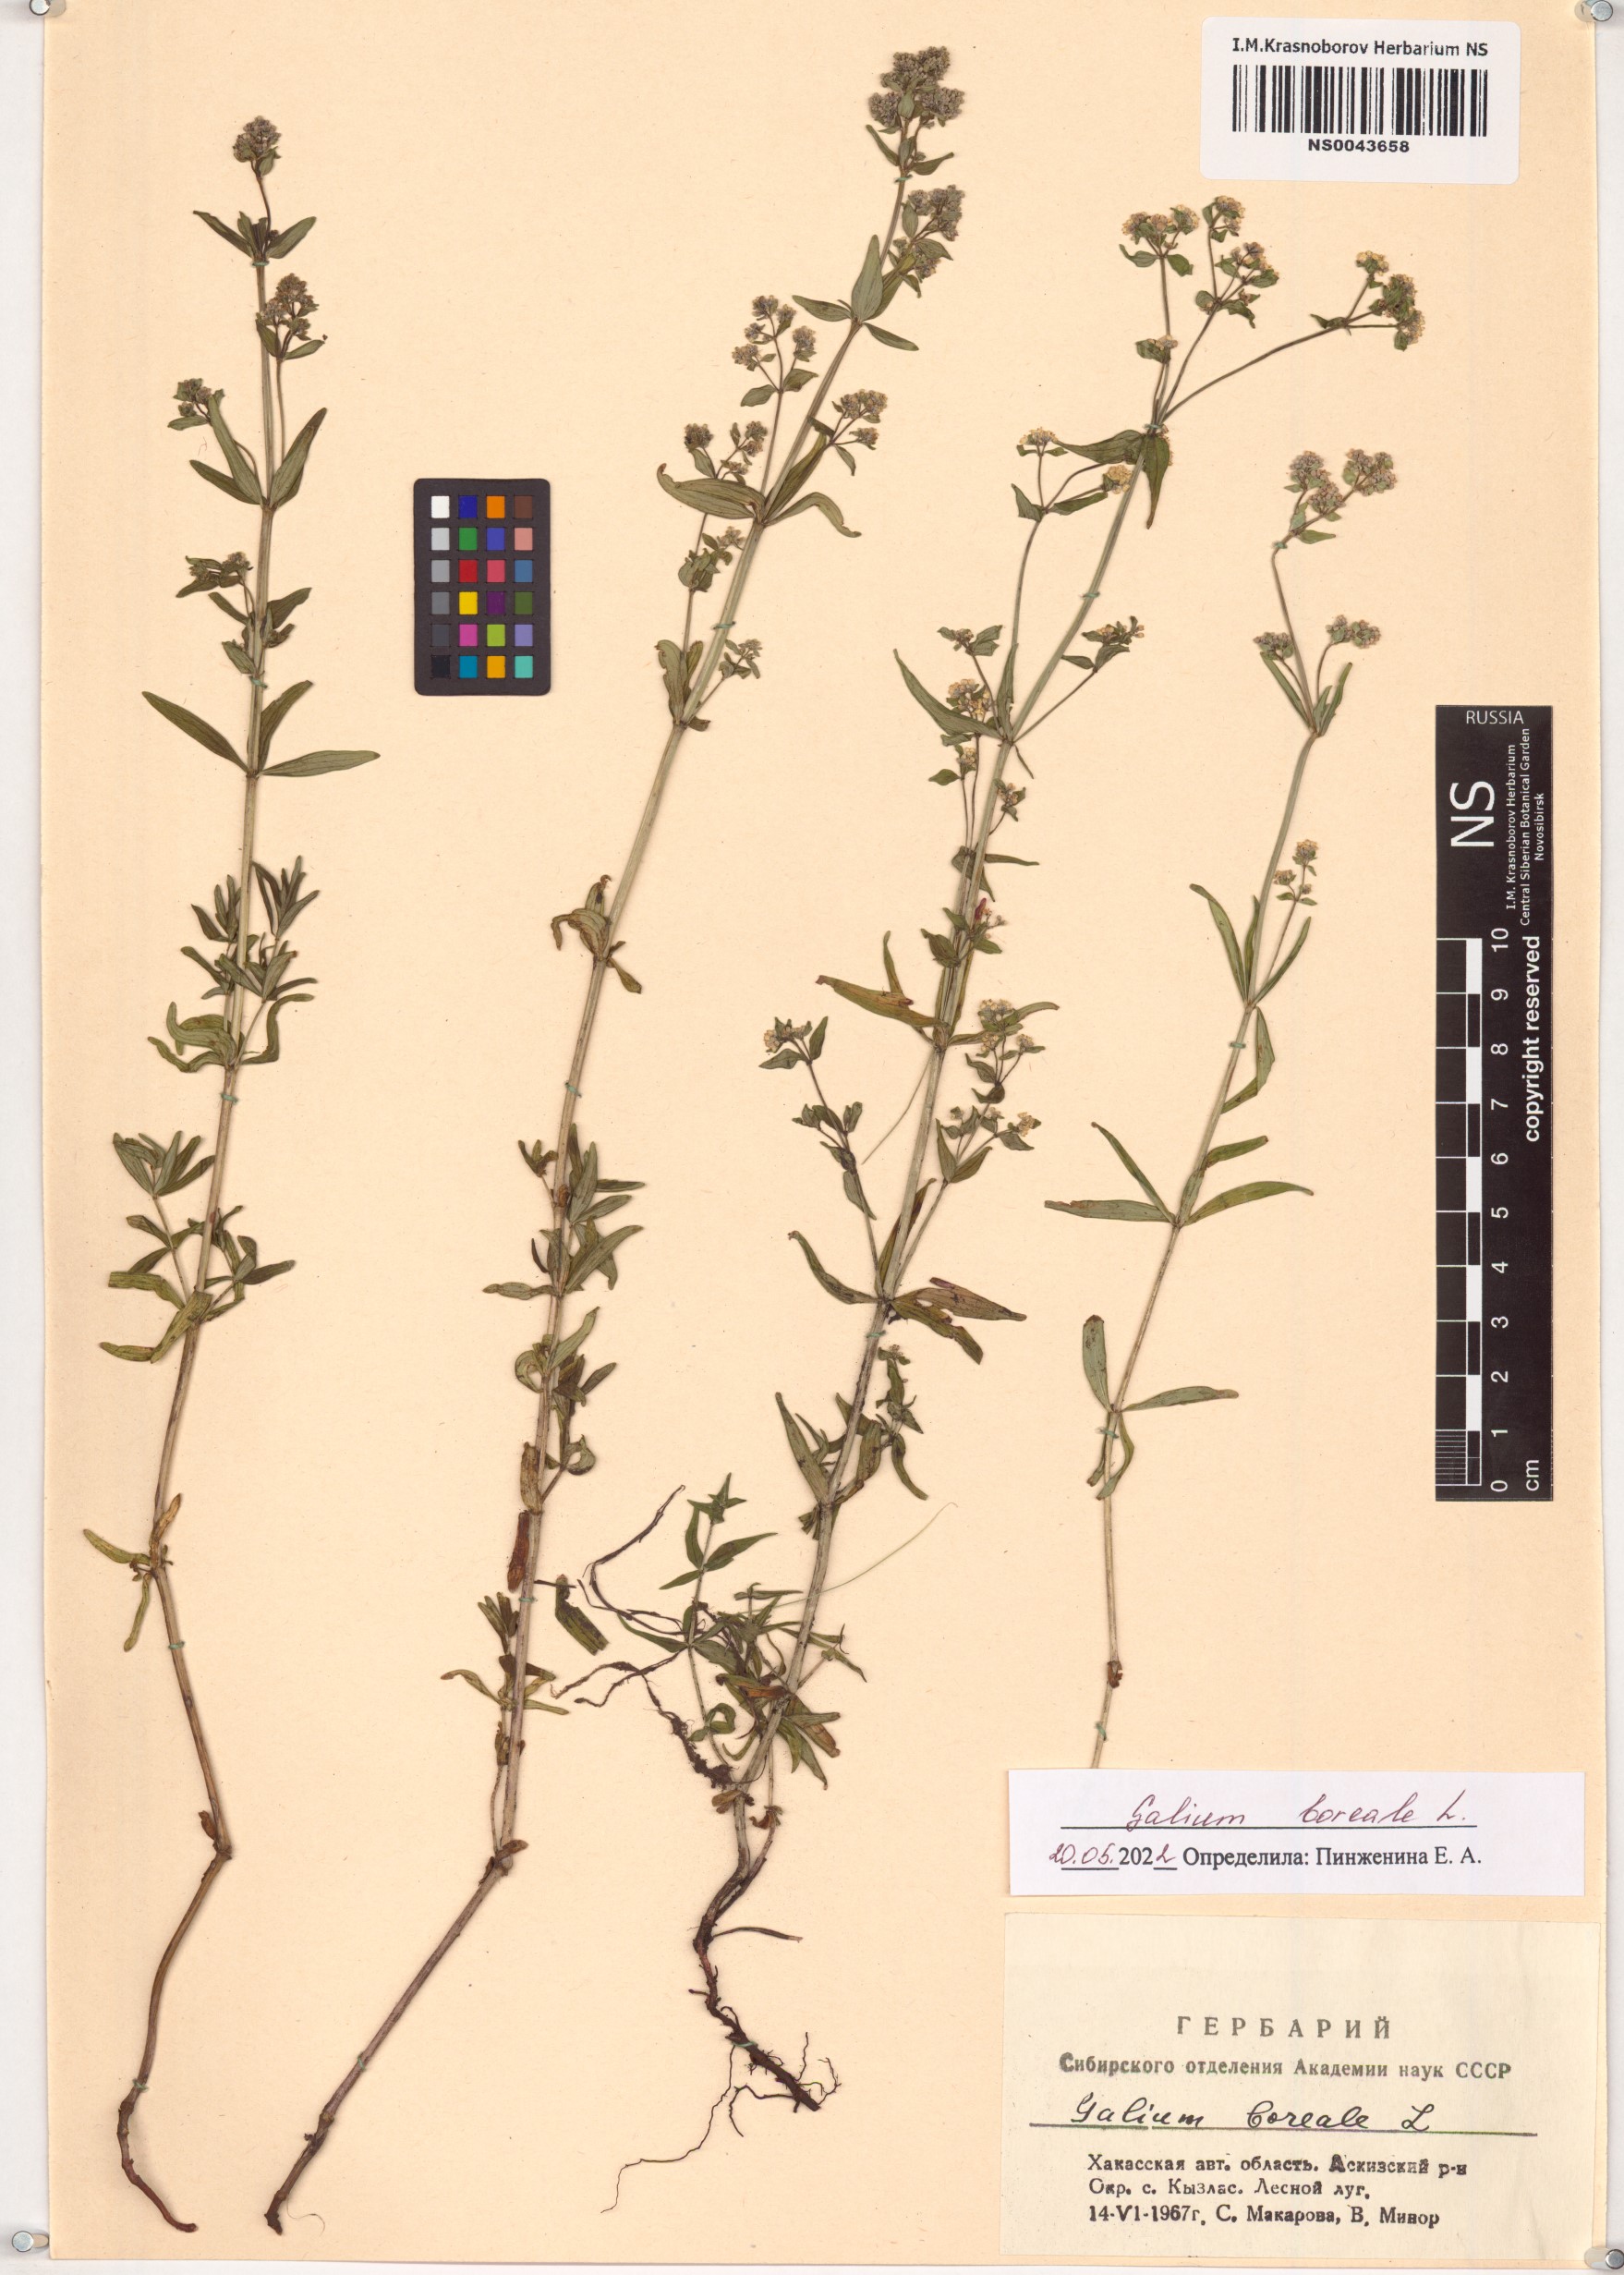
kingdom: Plantae
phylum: Tracheophyta
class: Magnoliopsida
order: Gentianales
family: Rubiaceae
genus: Galium
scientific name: Galium boreale
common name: Northern bedstraw
